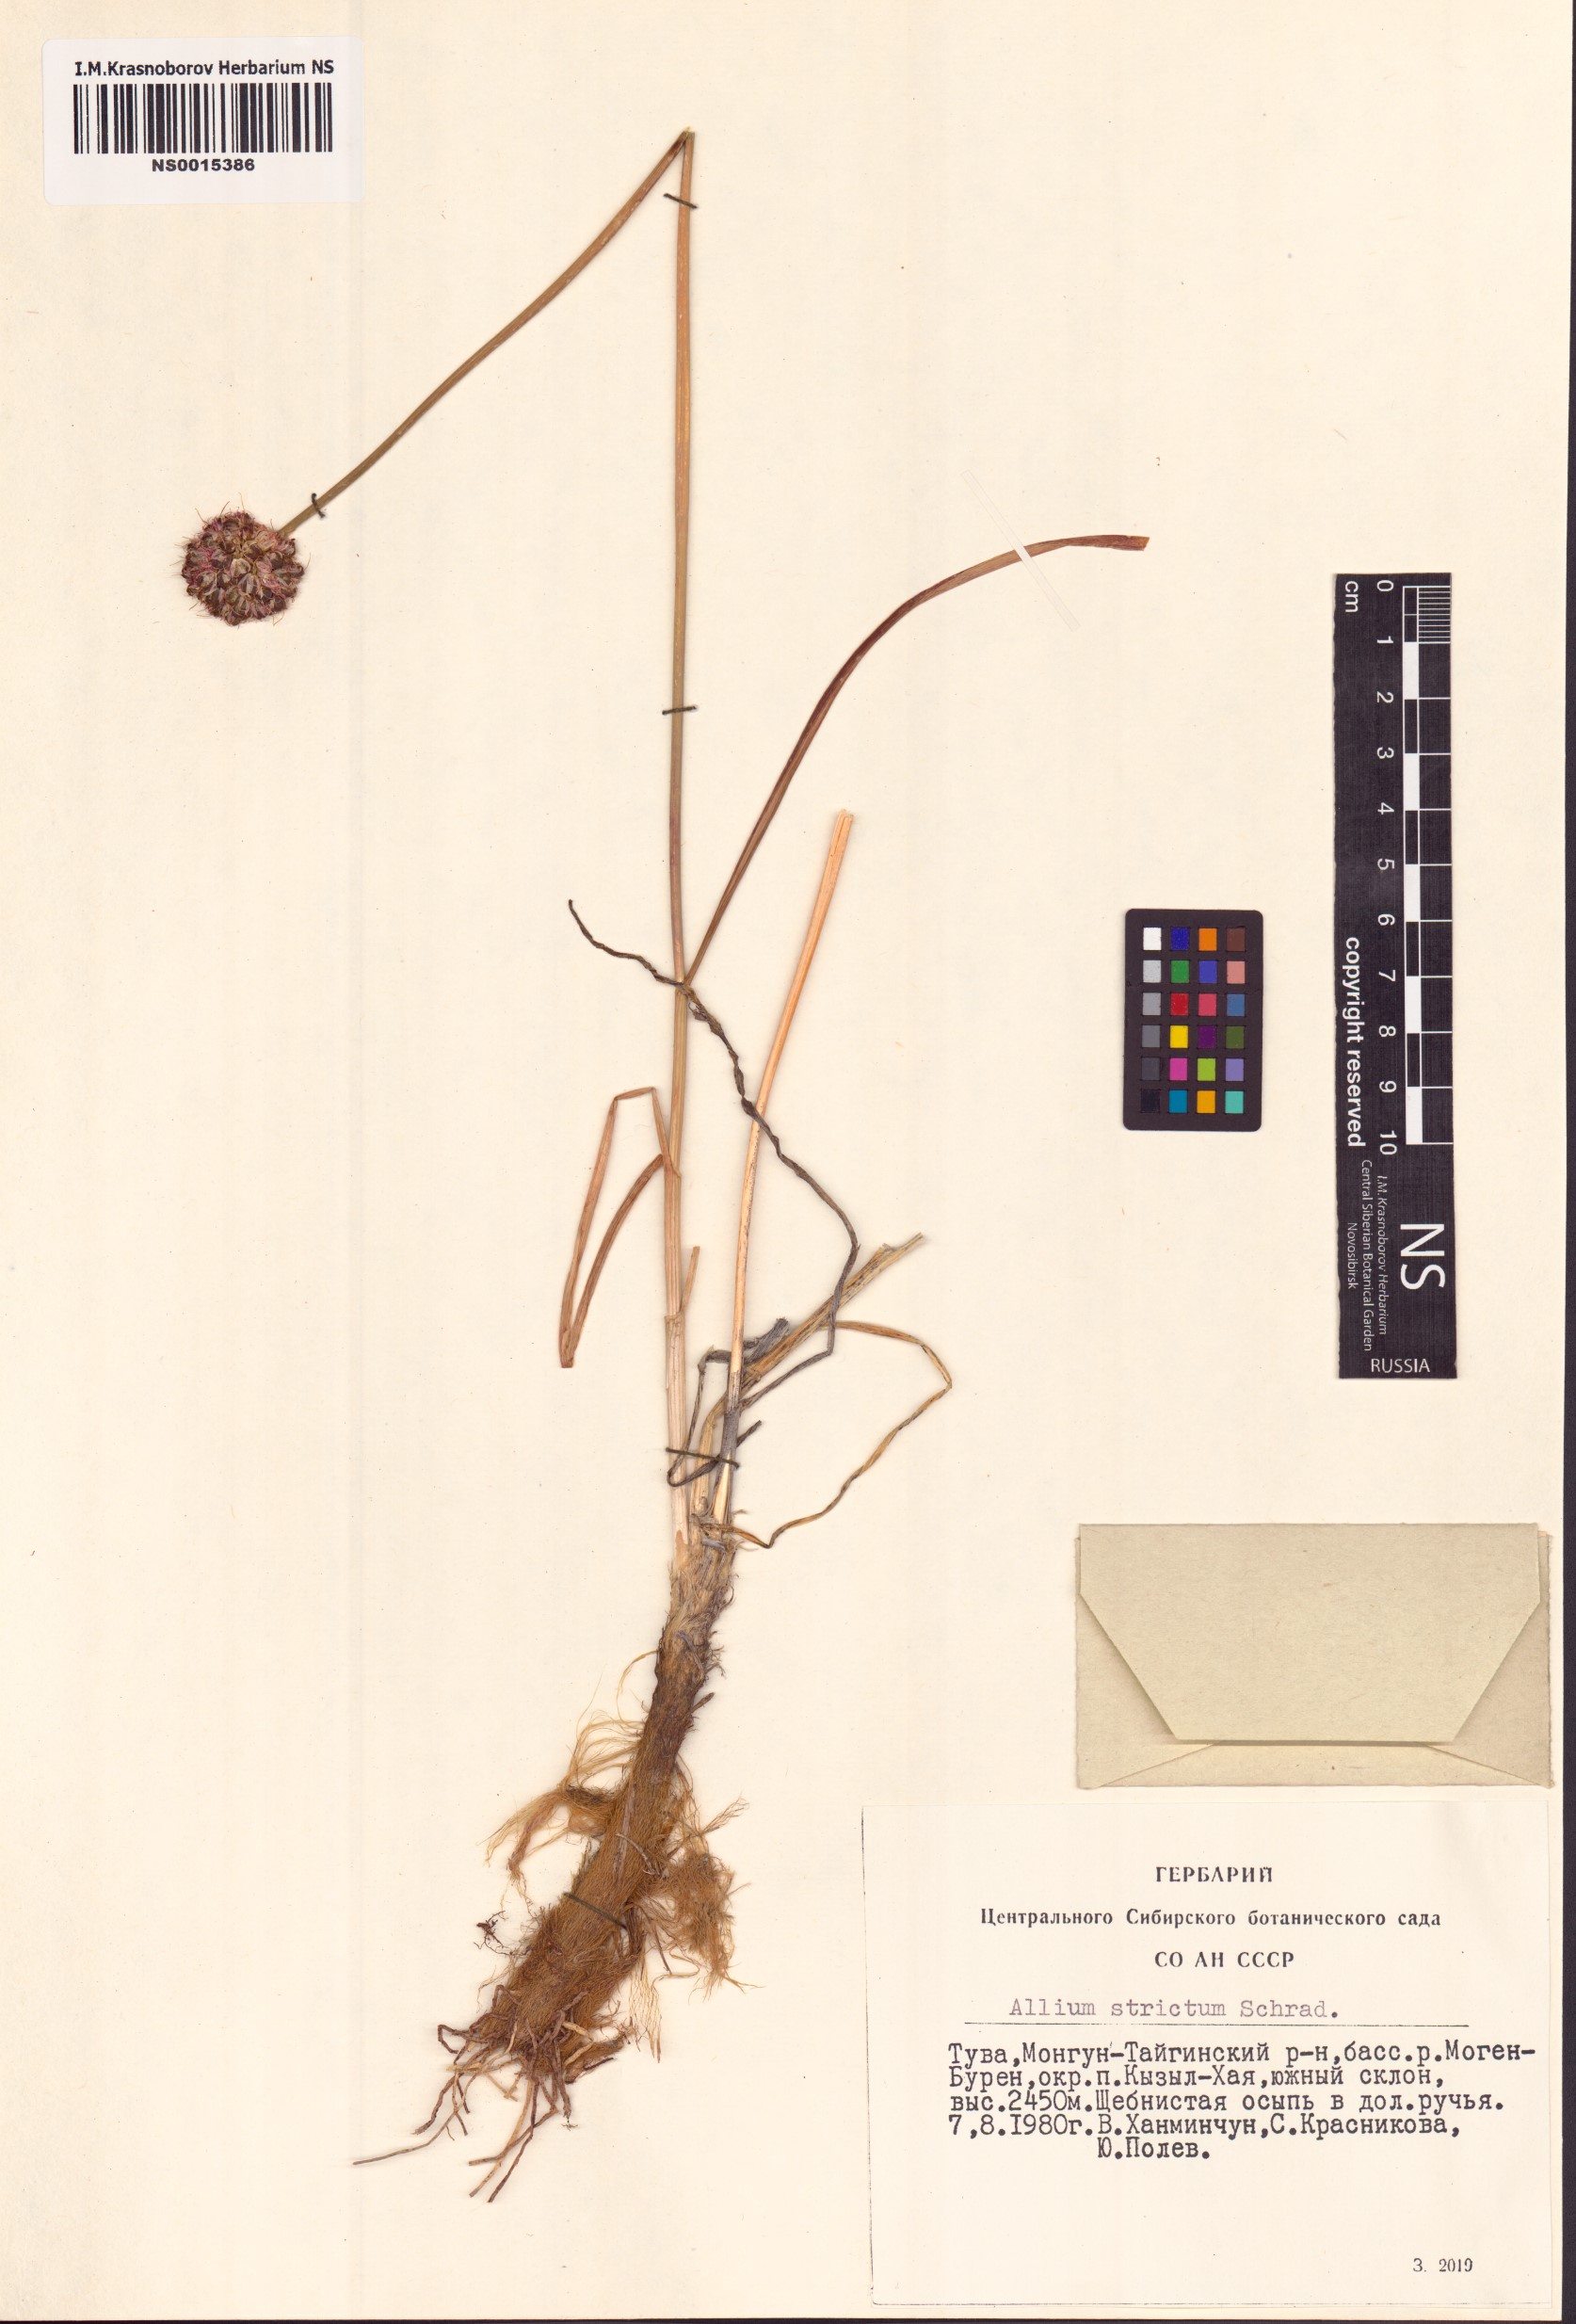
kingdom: Plantae
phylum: Tracheophyta
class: Liliopsida
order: Asparagales
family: Amaryllidaceae
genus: Allium
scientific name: Allium strictum
